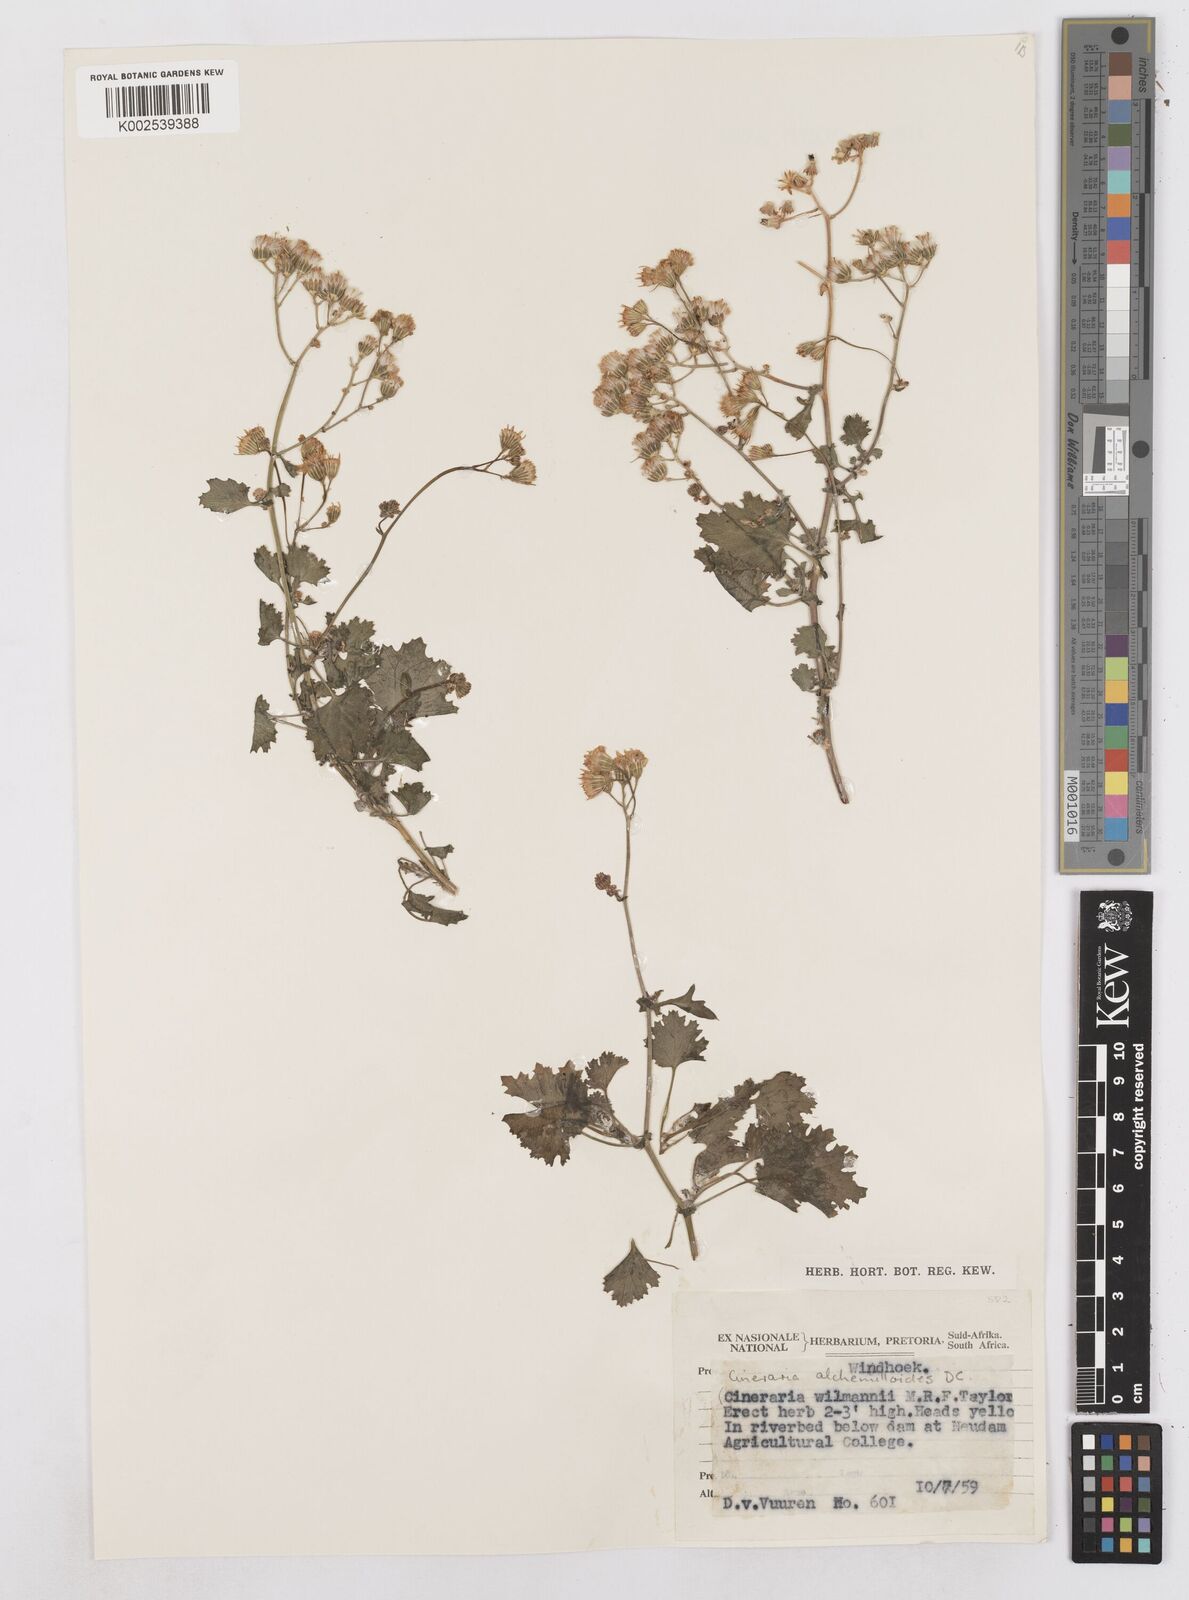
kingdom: Plantae
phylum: Tracheophyta
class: Magnoliopsida
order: Asterales
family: Asteraceae
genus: Cineraria
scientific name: Cineraria alchemilloides
